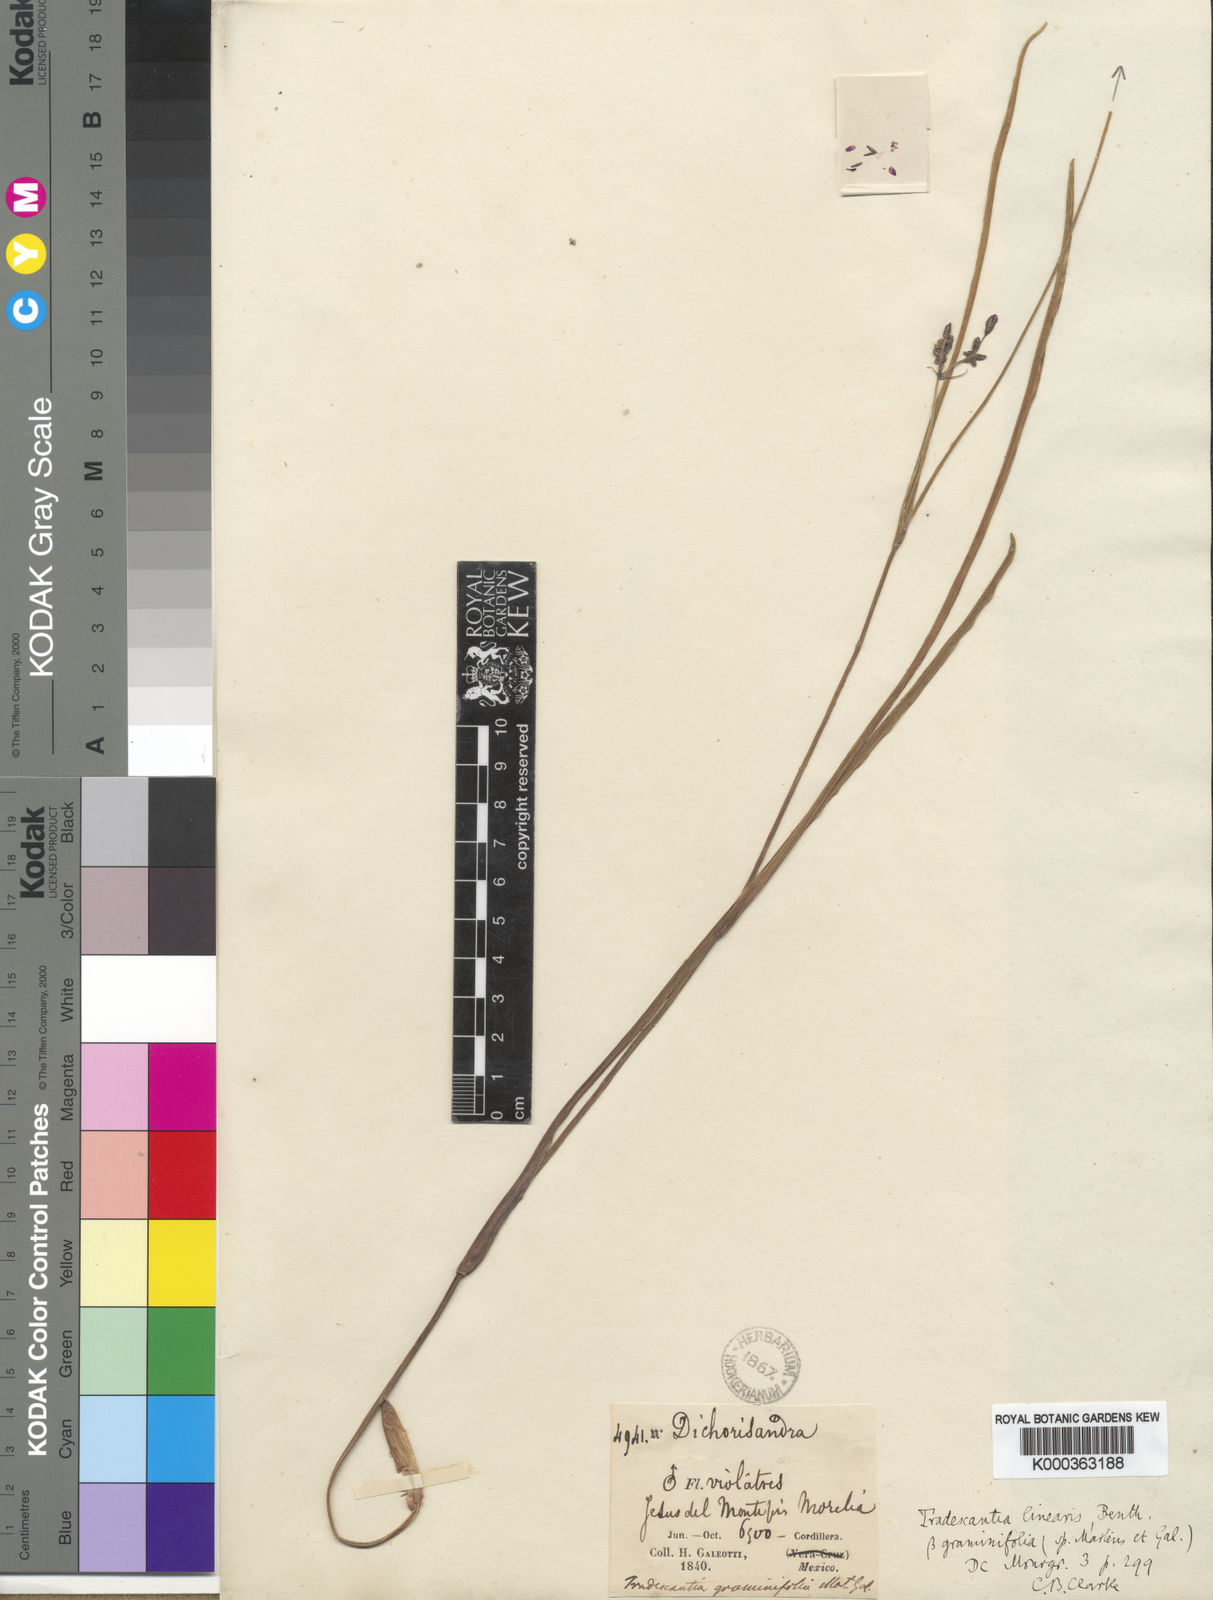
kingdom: Plantae
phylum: Tracheophyta
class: Liliopsida
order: Commelinales
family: Commelinaceae
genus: Gibasis
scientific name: Gibasis linearis
